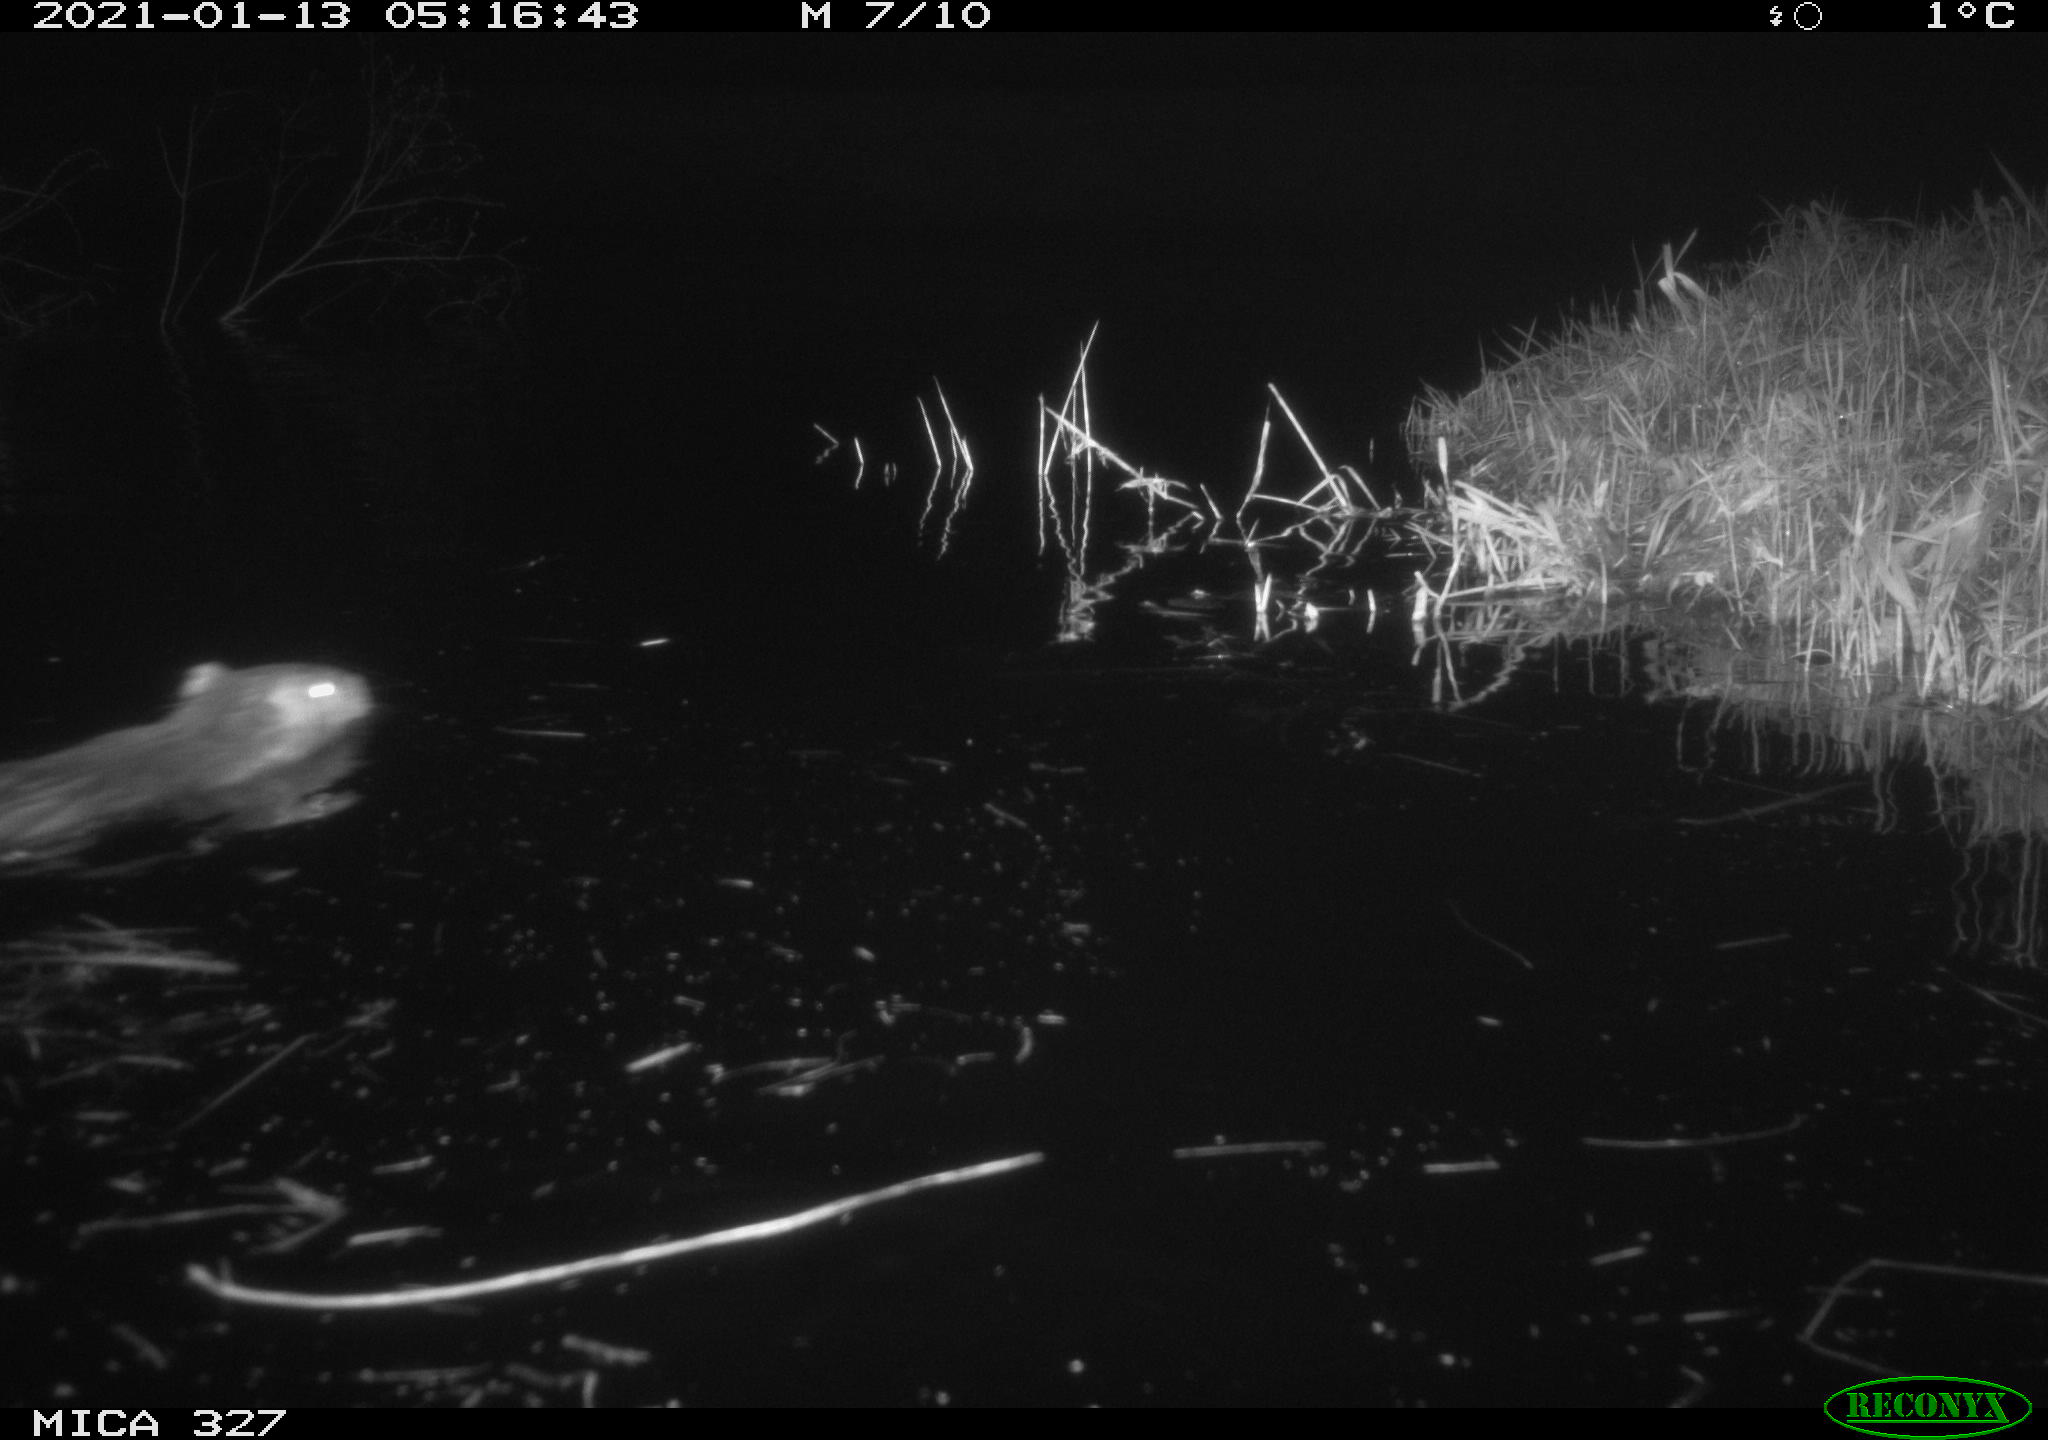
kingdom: Animalia
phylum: Chordata
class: Mammalia
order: Rodentia
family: Cricetidae
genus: Ondatra
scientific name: Ondatra zibethicus
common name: Muskrat
